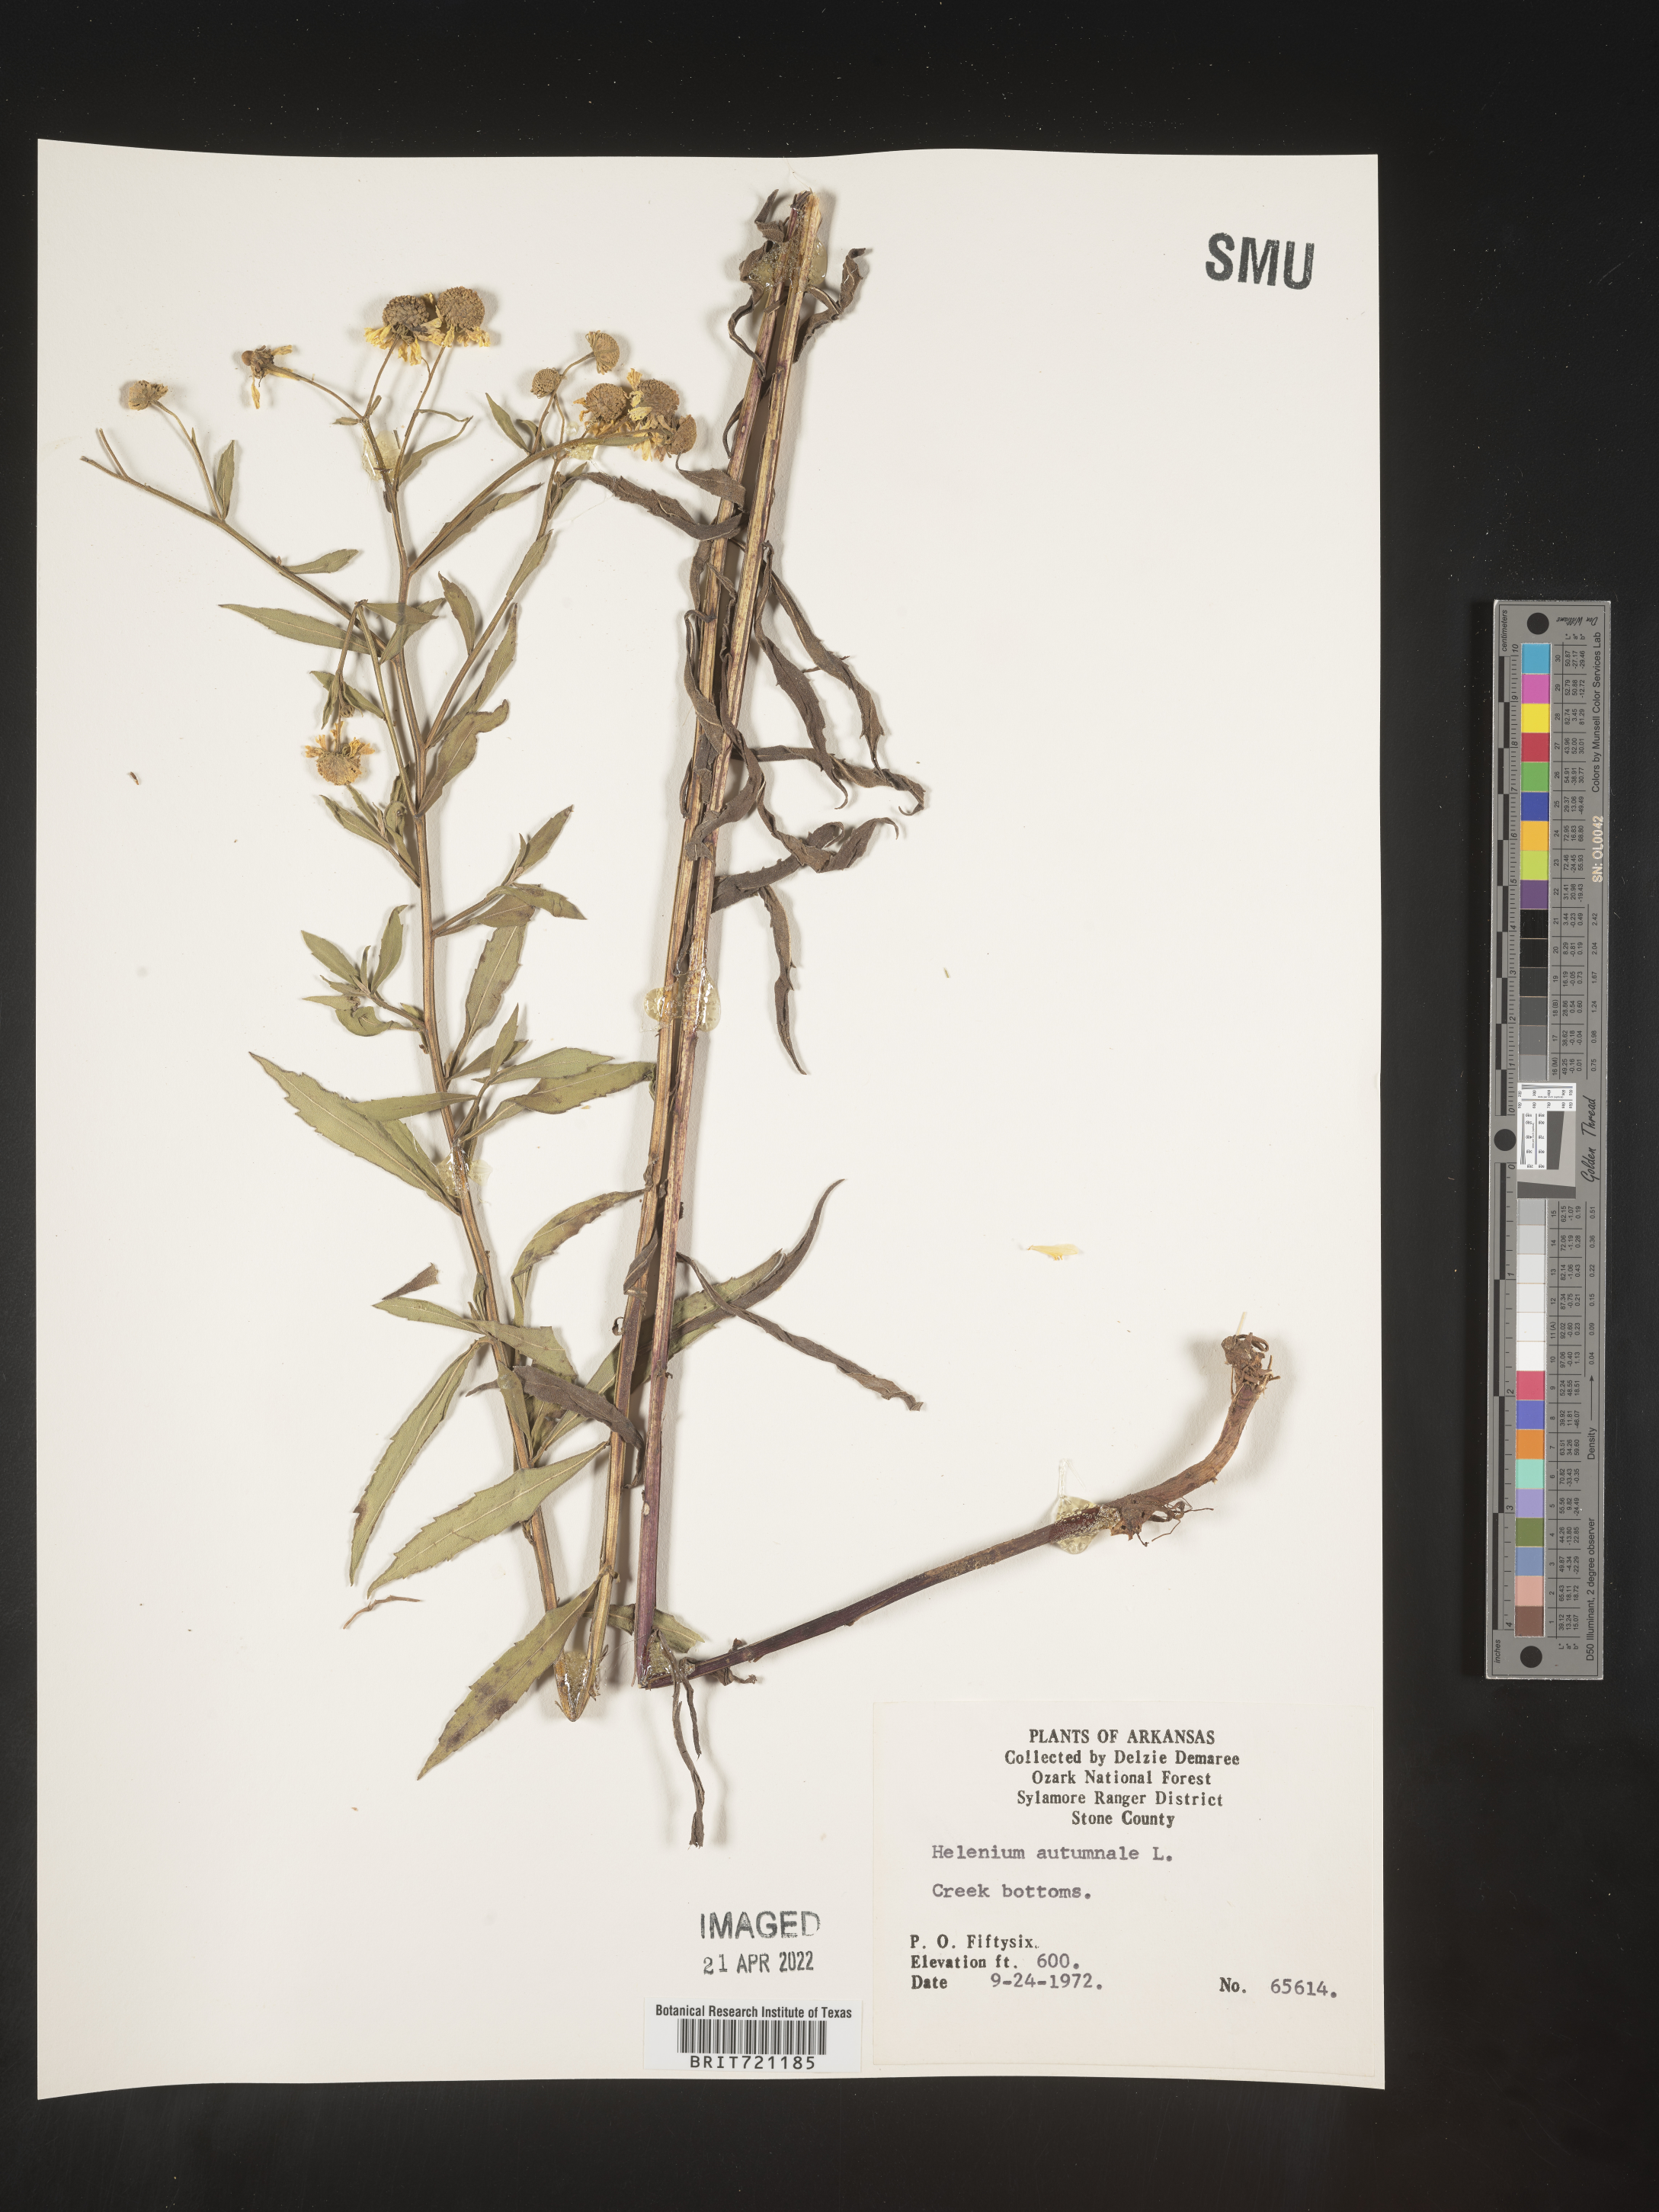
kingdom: Plantae
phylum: Tracheophyta
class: Magnoliopsida
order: Asterales
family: Asteraceae
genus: Helenium
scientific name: Helenium autumnale
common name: Sneezeweed
